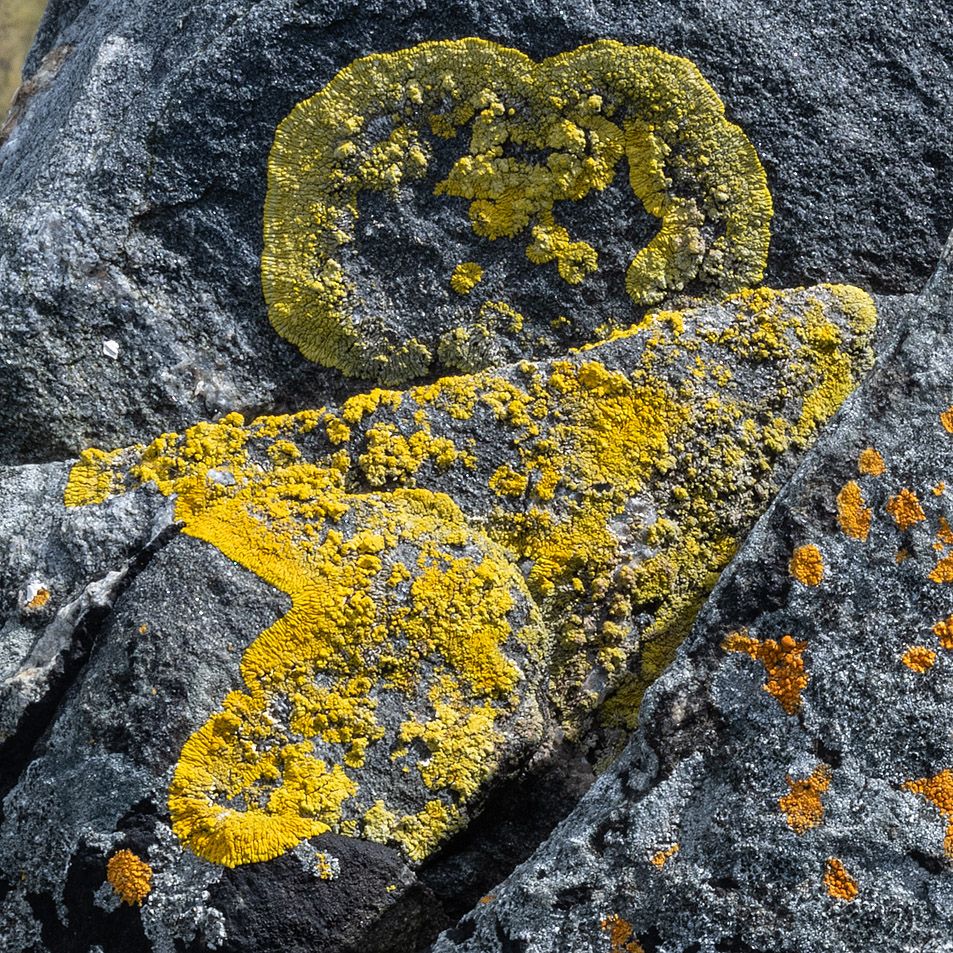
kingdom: Fungi
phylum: Ascomycota
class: Lecanoromycetes
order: Teloschistales
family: Teloschistaceae
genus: Verrucoplaca
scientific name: Verrucoplaca verruculifera
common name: koldkyst-orangelav
